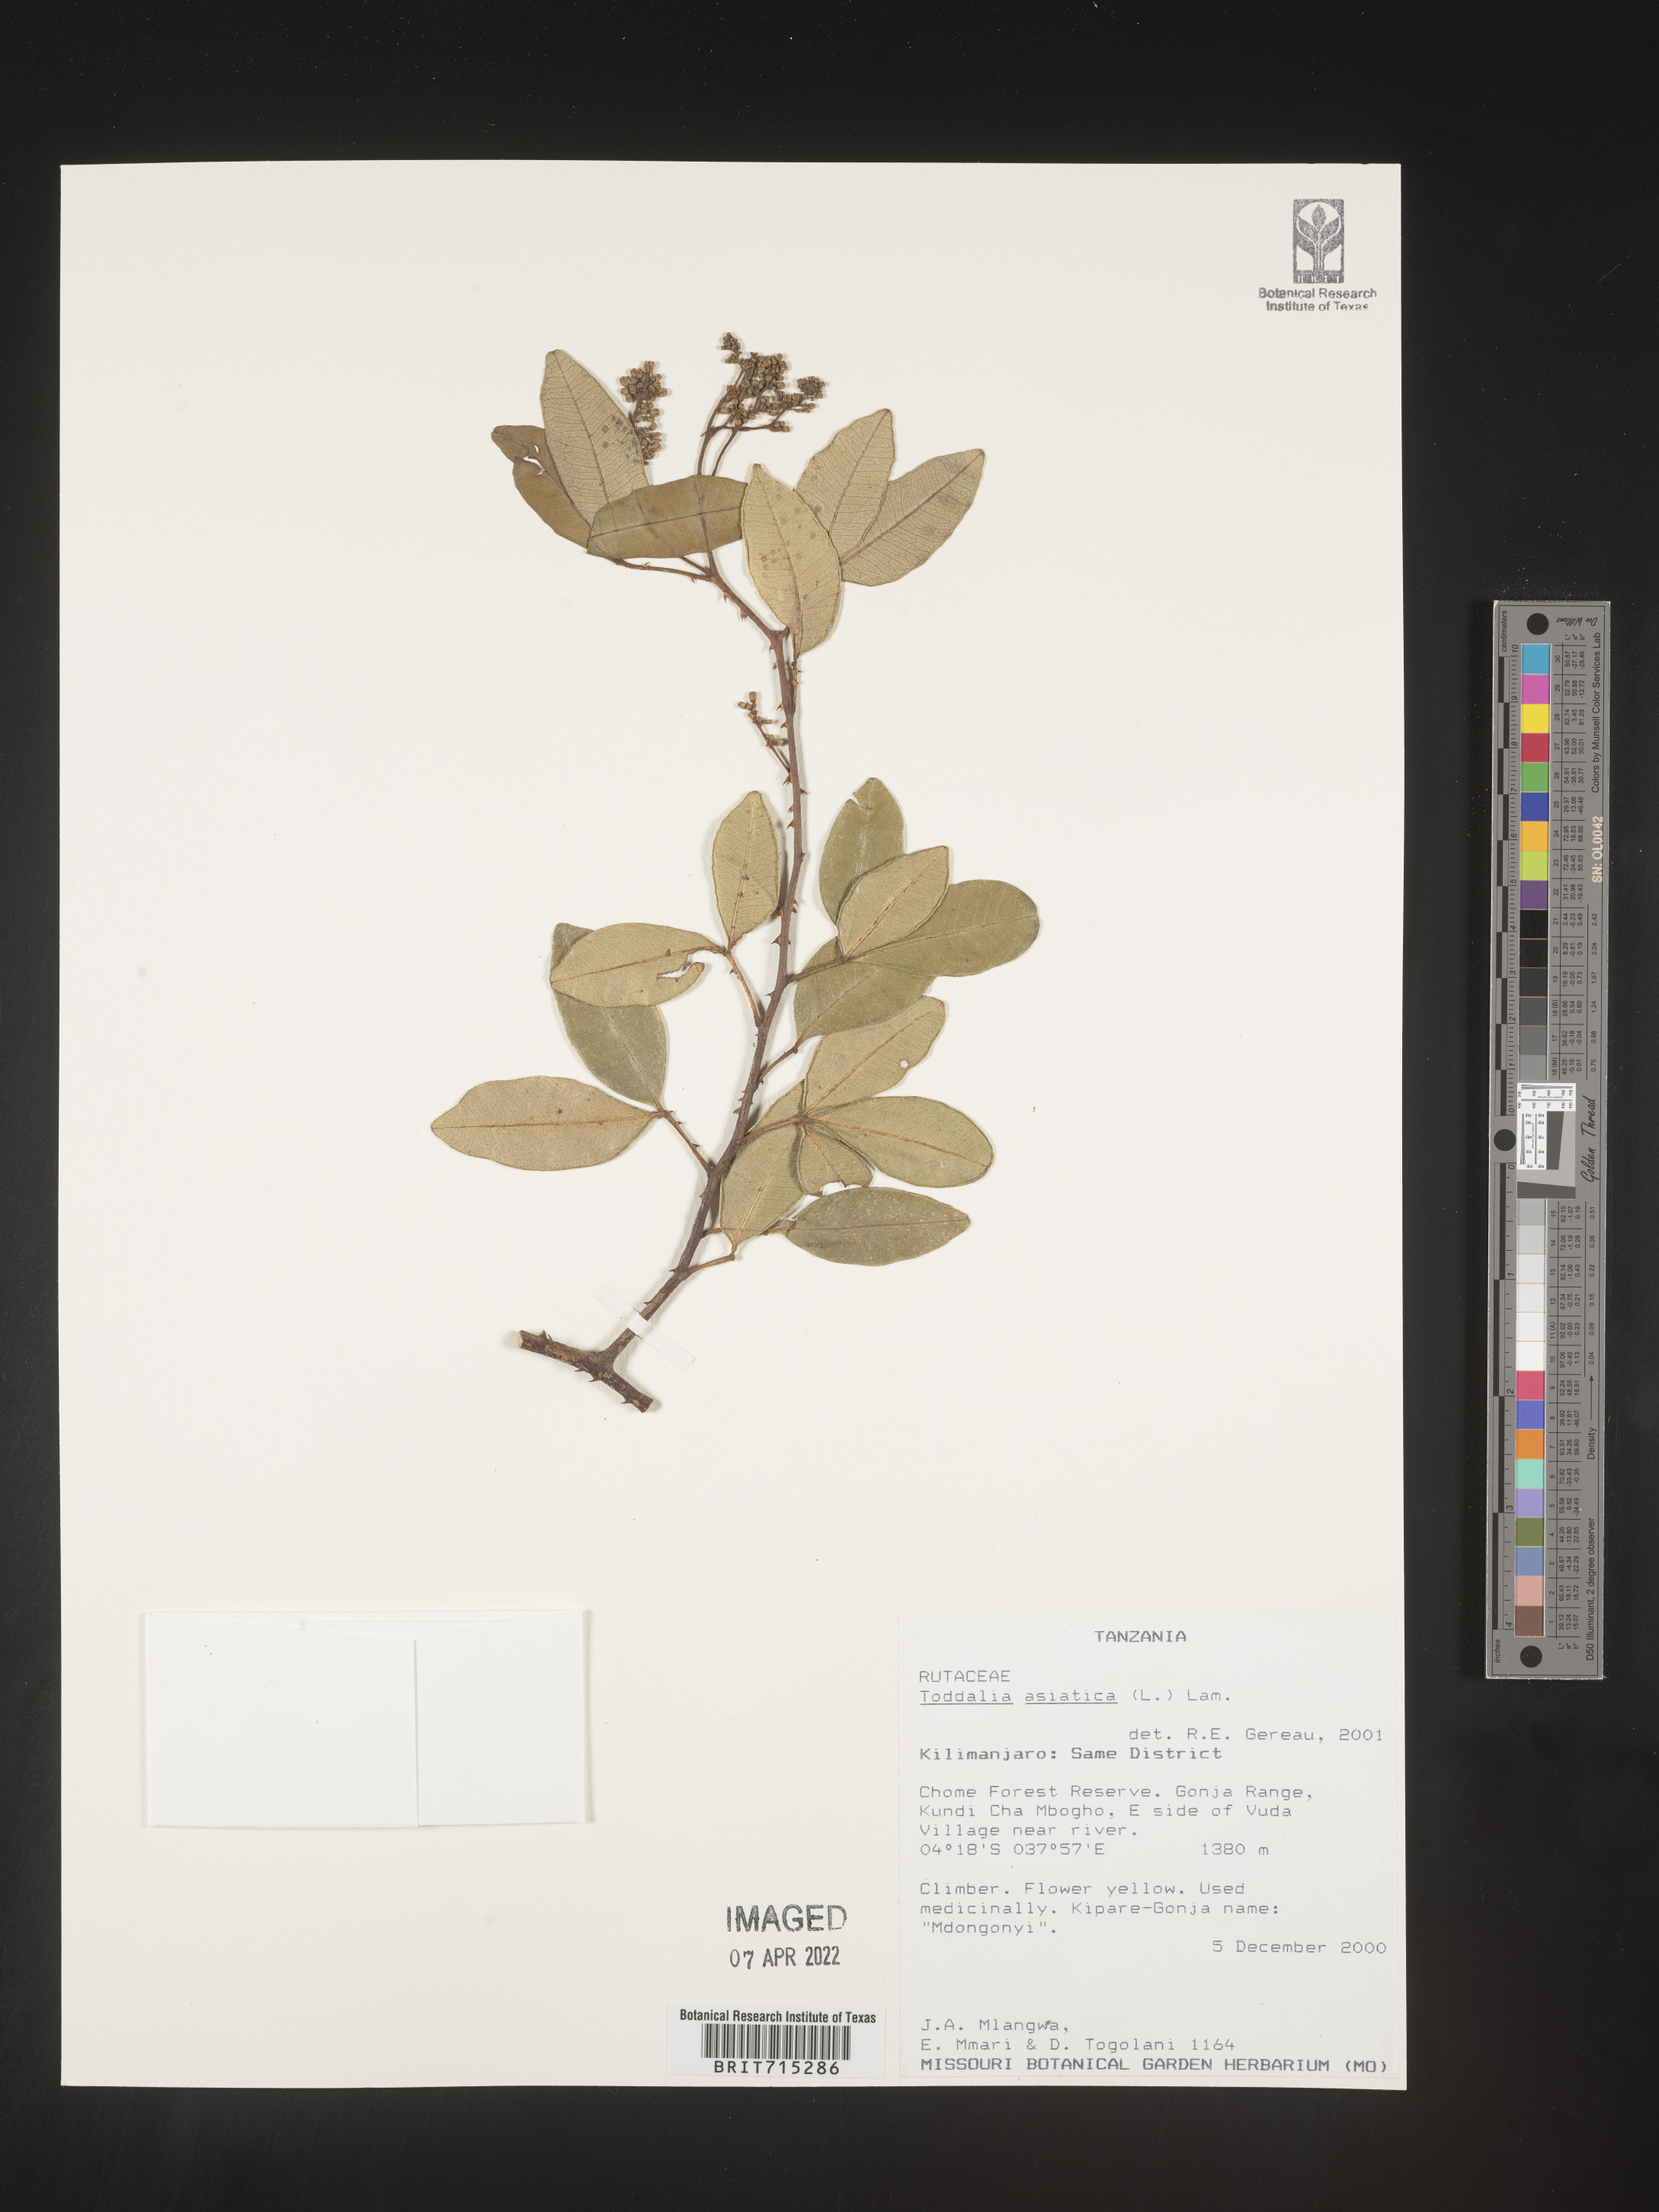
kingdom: Plantae
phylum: Tracheophyta
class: Magnoliopsida
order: Sapindales
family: Rutaceae
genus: Zanthoxylum
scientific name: Zanthoxylum
